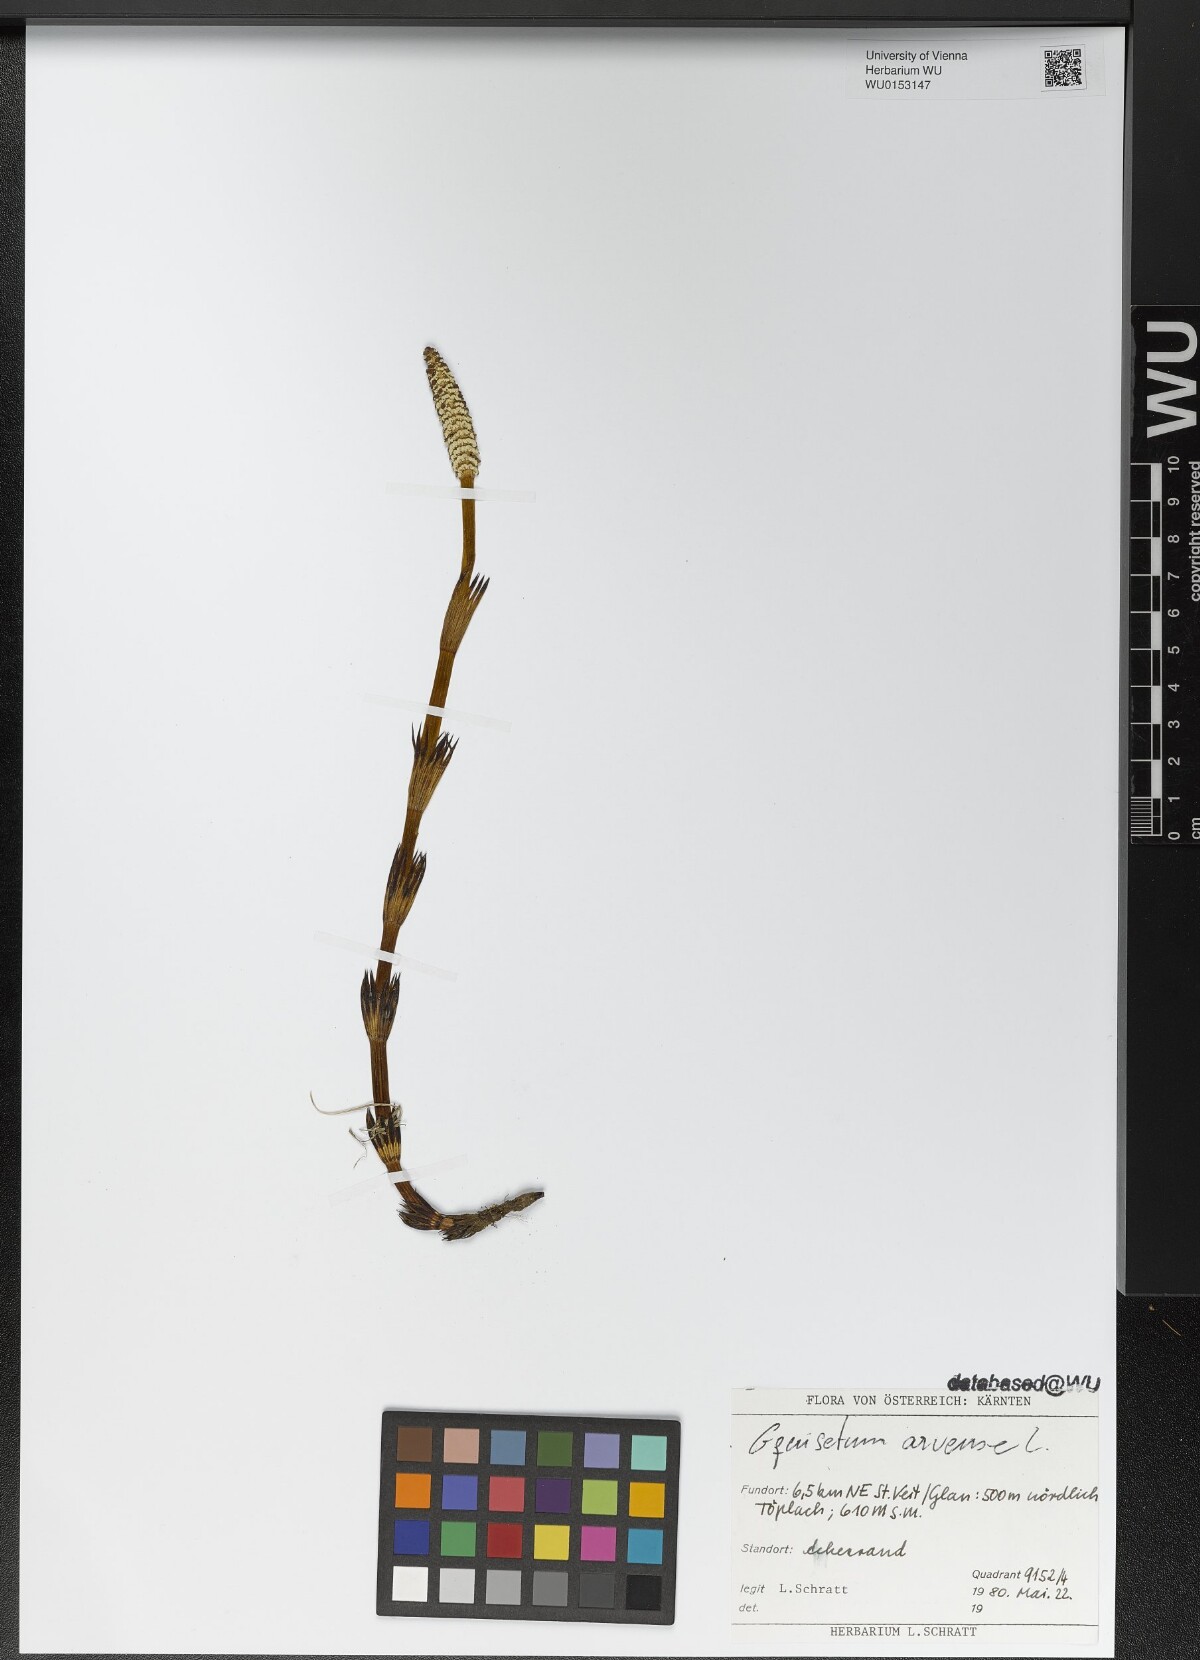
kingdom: Plantae
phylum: Tracheophyta
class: Polypodiopsida
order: Equisetales
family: Equisetaceae
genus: Equisetum
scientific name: Equisetum arvense
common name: Field horsetail
